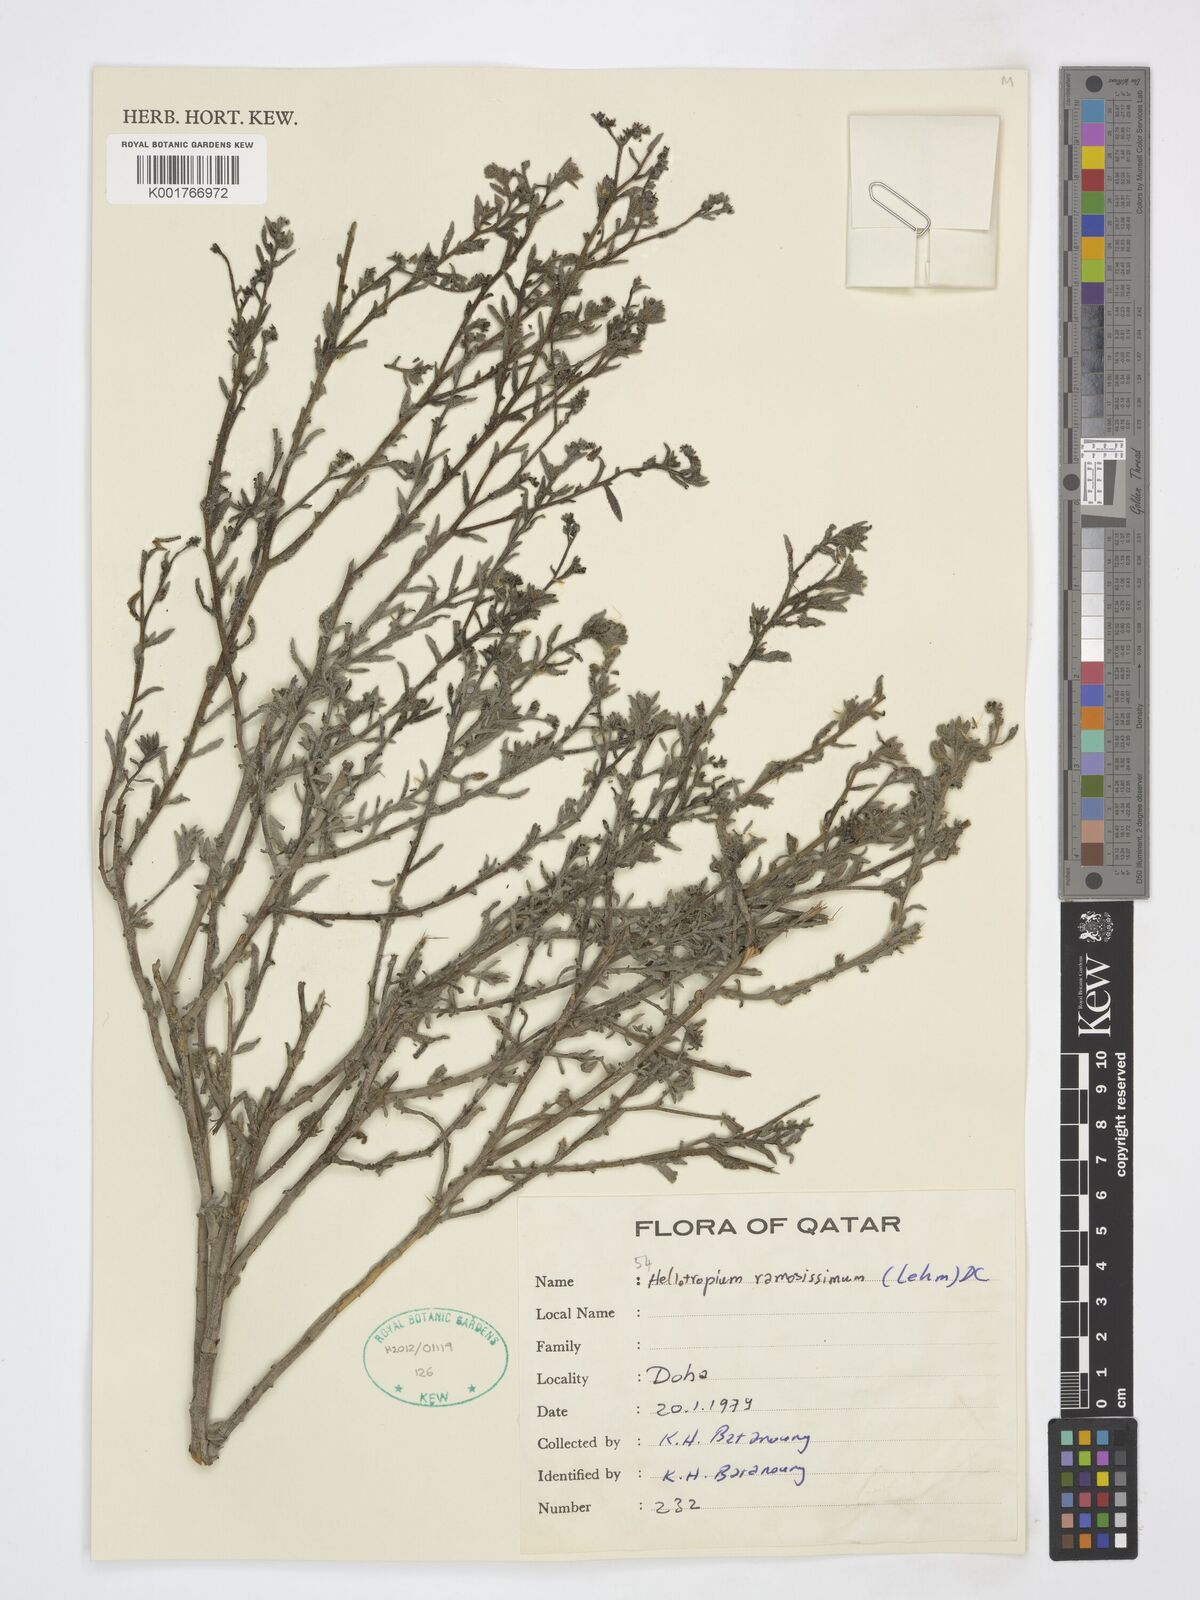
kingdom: Plantae
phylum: Tracheophyta
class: Magnoliopsida
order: Boraginales
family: Heliotropiaceae
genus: Heliotropium
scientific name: Heliotropium ramosissimum
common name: Wavy heliotrope
